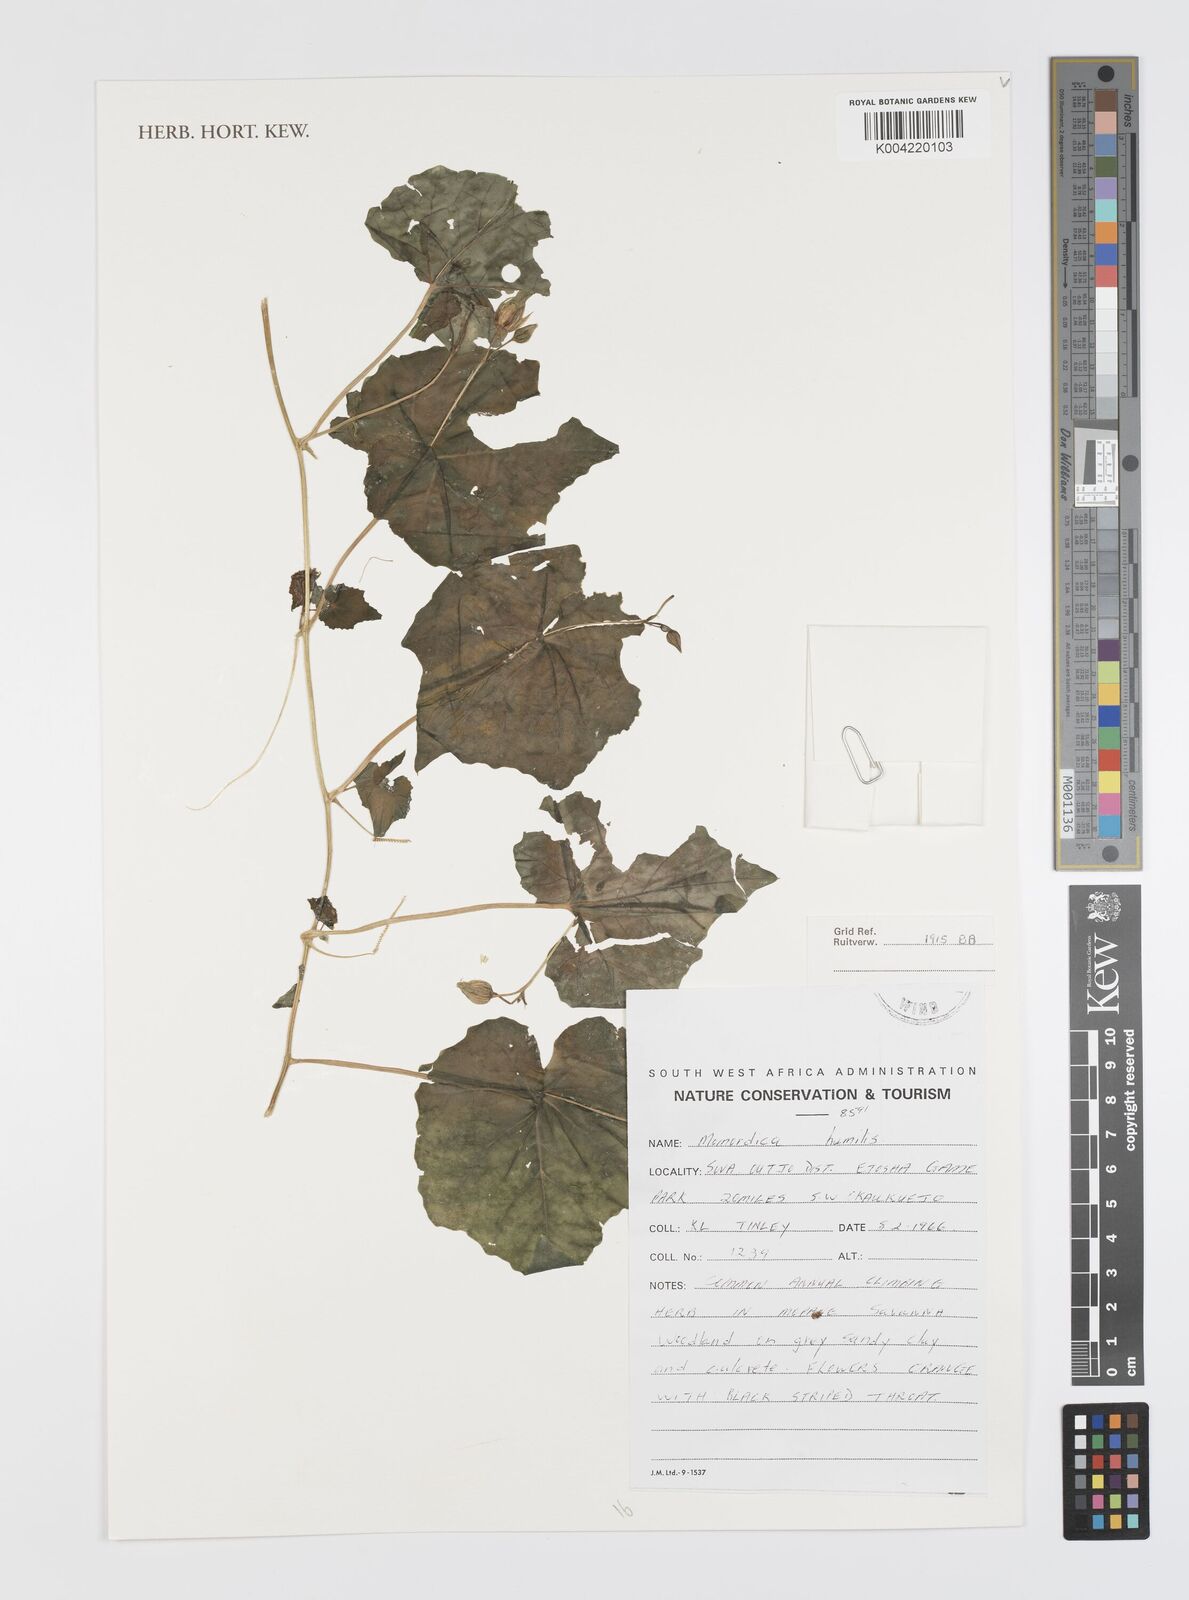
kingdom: Plantae
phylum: Tracheophyta
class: Magnoliopsida
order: Cucurbitales
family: Cucurbitaceae
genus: Momordica
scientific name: Momordica
